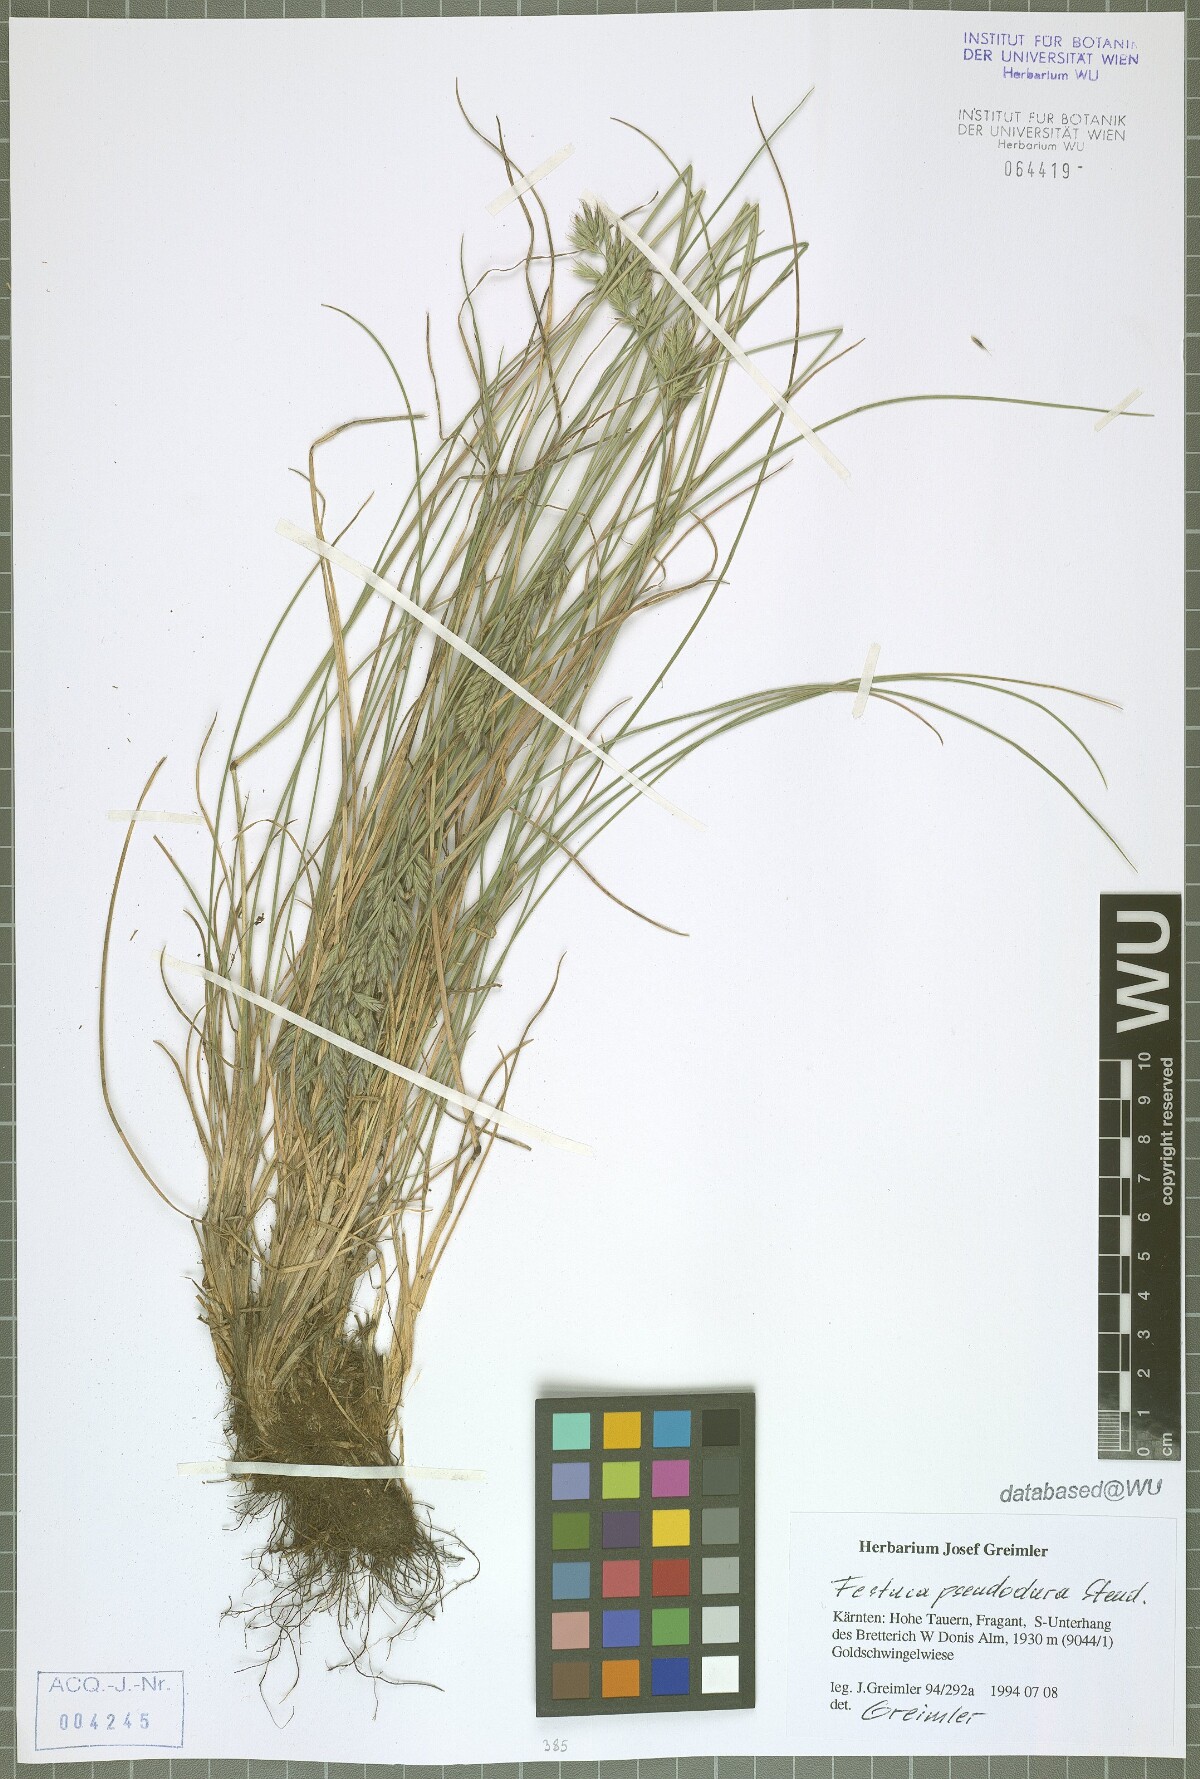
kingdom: Plantae
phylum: Tracheophyta
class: Liliopsida
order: Poales
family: Poaceae
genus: Festuca
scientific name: Festuca pseudodura
